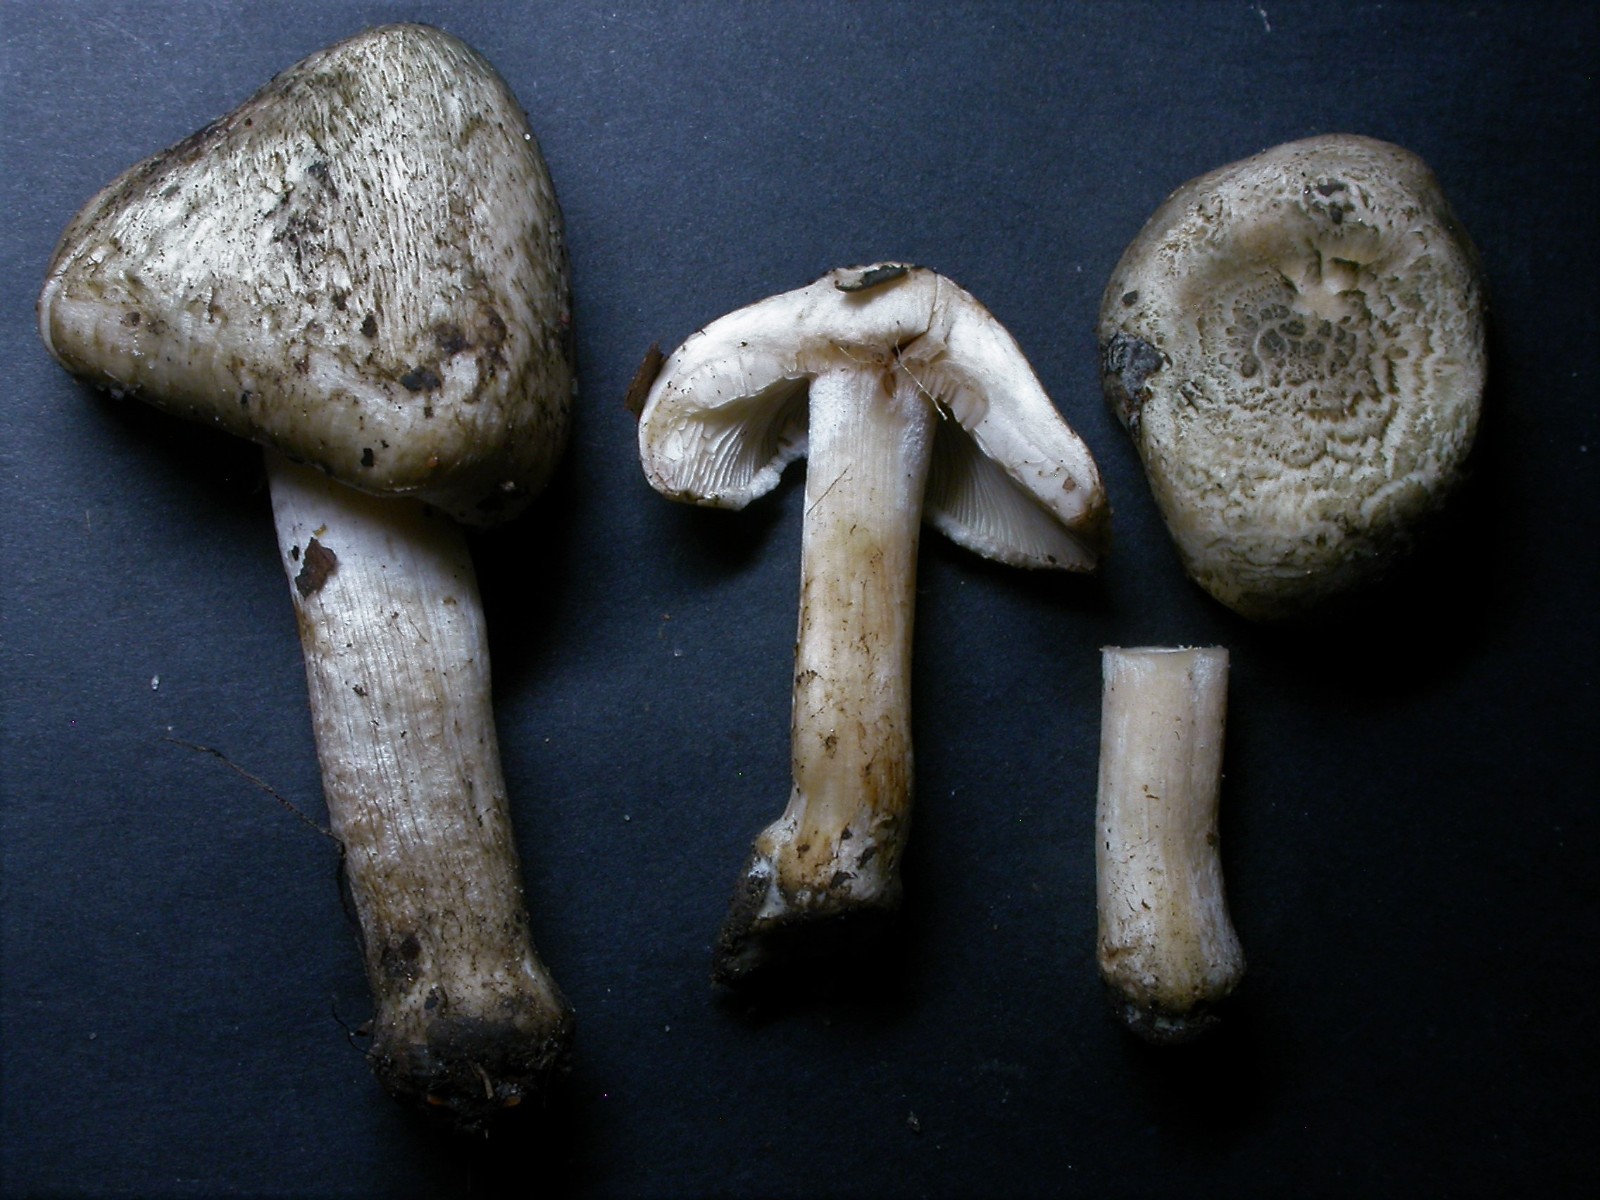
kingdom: Fungi
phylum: Basidiomycota
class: Agaricomycetes
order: Agaricales
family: Inocybaceae
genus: Inocybe
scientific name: Inocybe corydalina
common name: grønpuklet trævlhat
